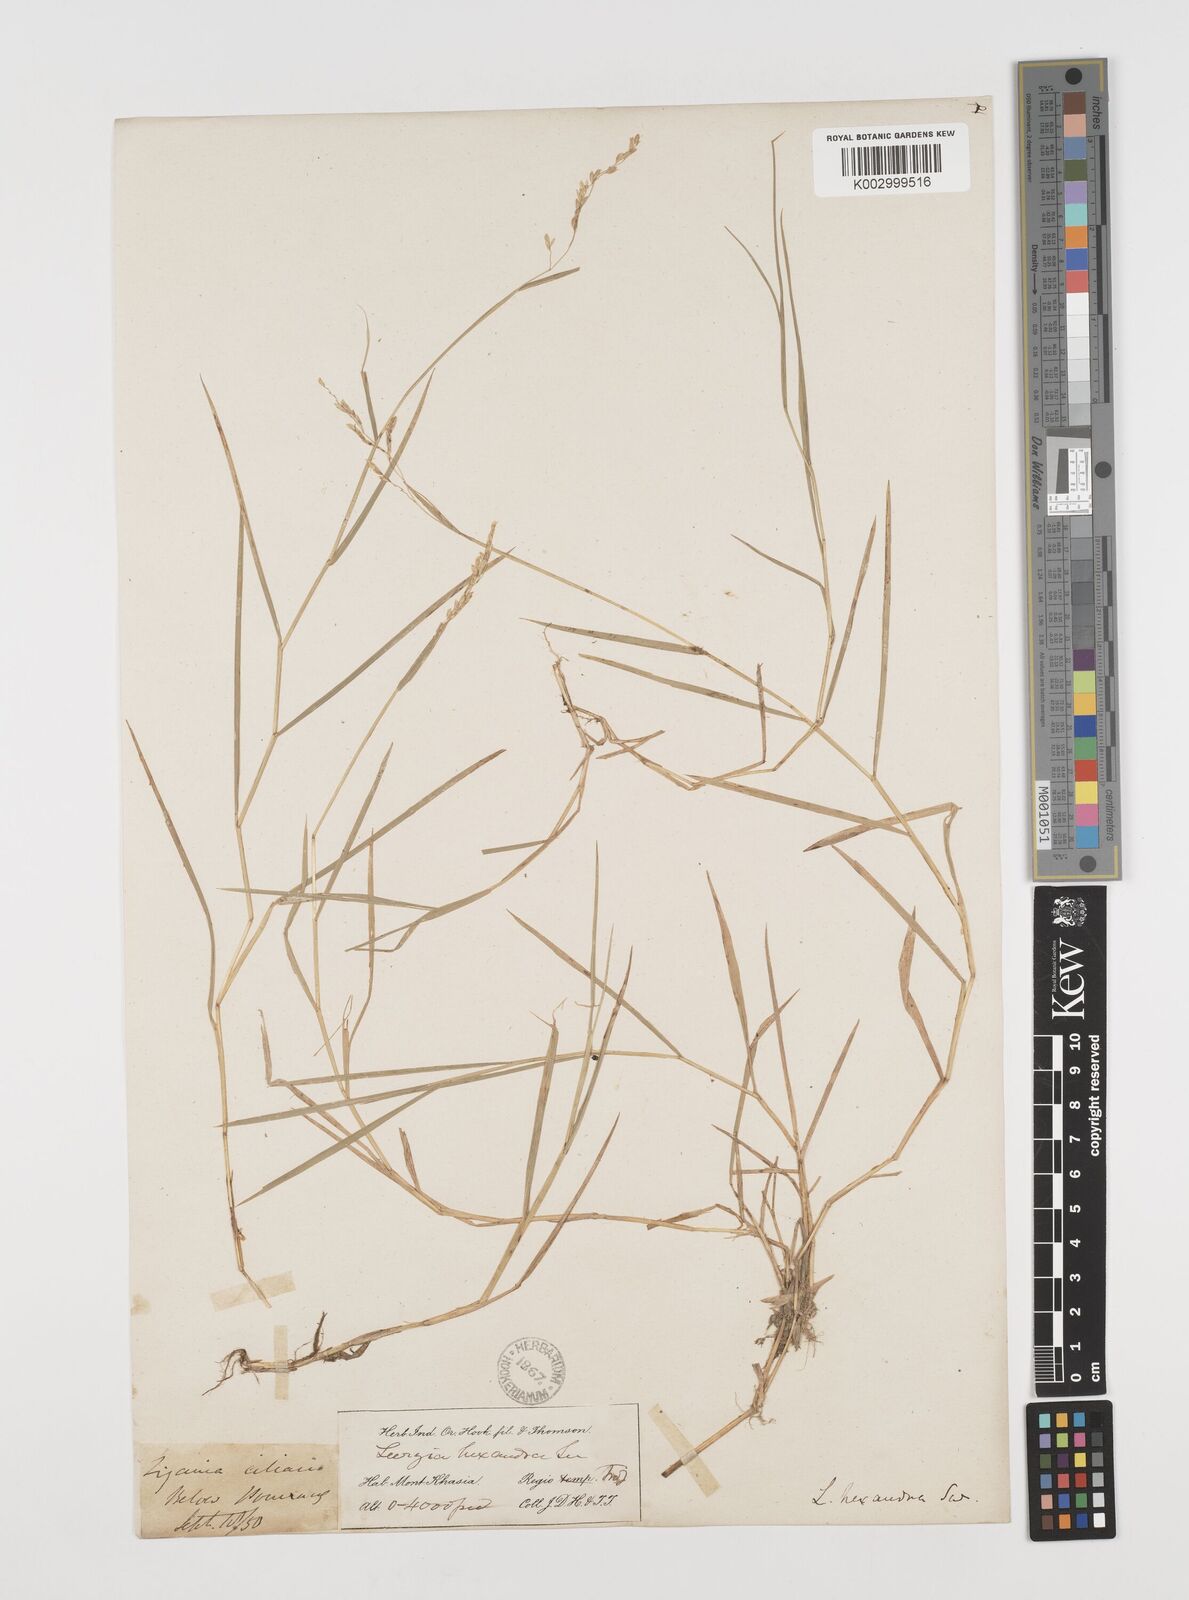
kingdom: Plantae
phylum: Tracheophyta
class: Liliopsida
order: Poales
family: Poaceae
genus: Leersia
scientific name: Leersia hexandra
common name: Southern cut grass
